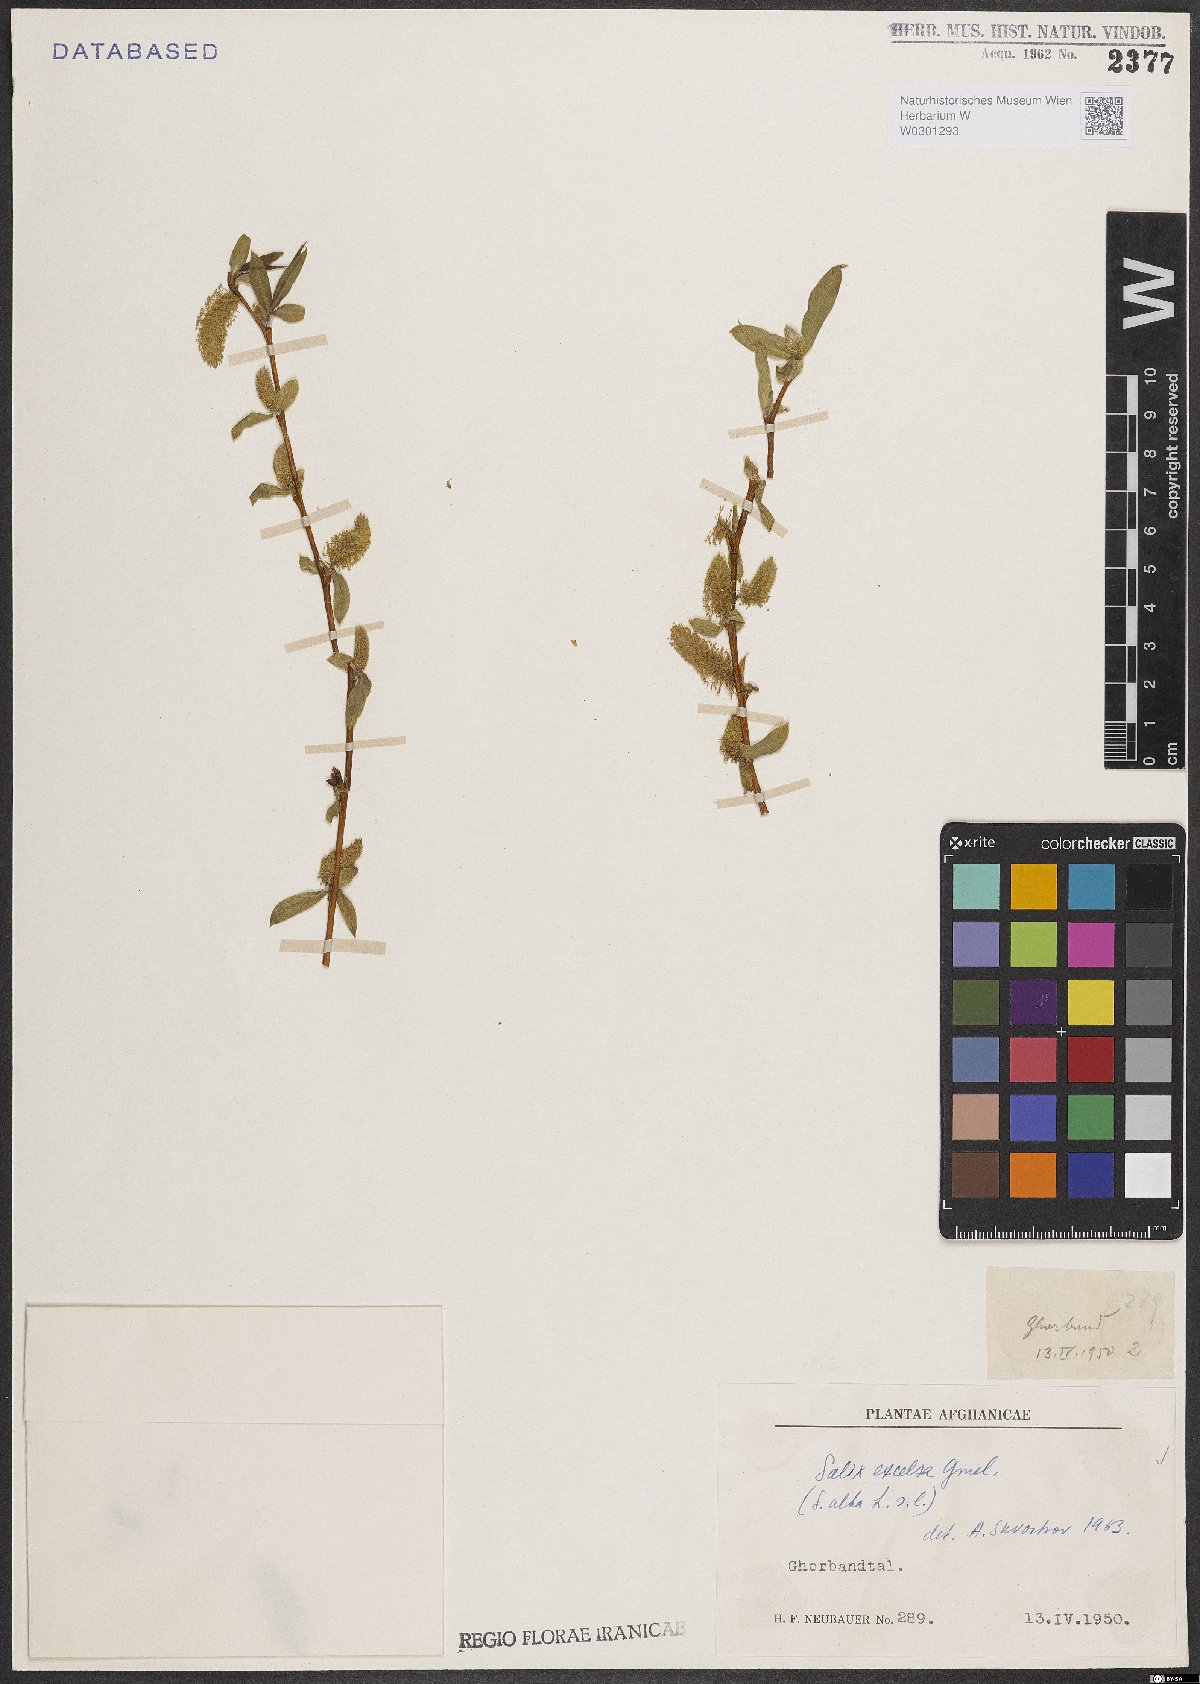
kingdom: Plantae
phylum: Tracheophyta
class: Magnoliopsida
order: Malpighiales
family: Salicaceae
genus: Salix
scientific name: Salix excelsa
